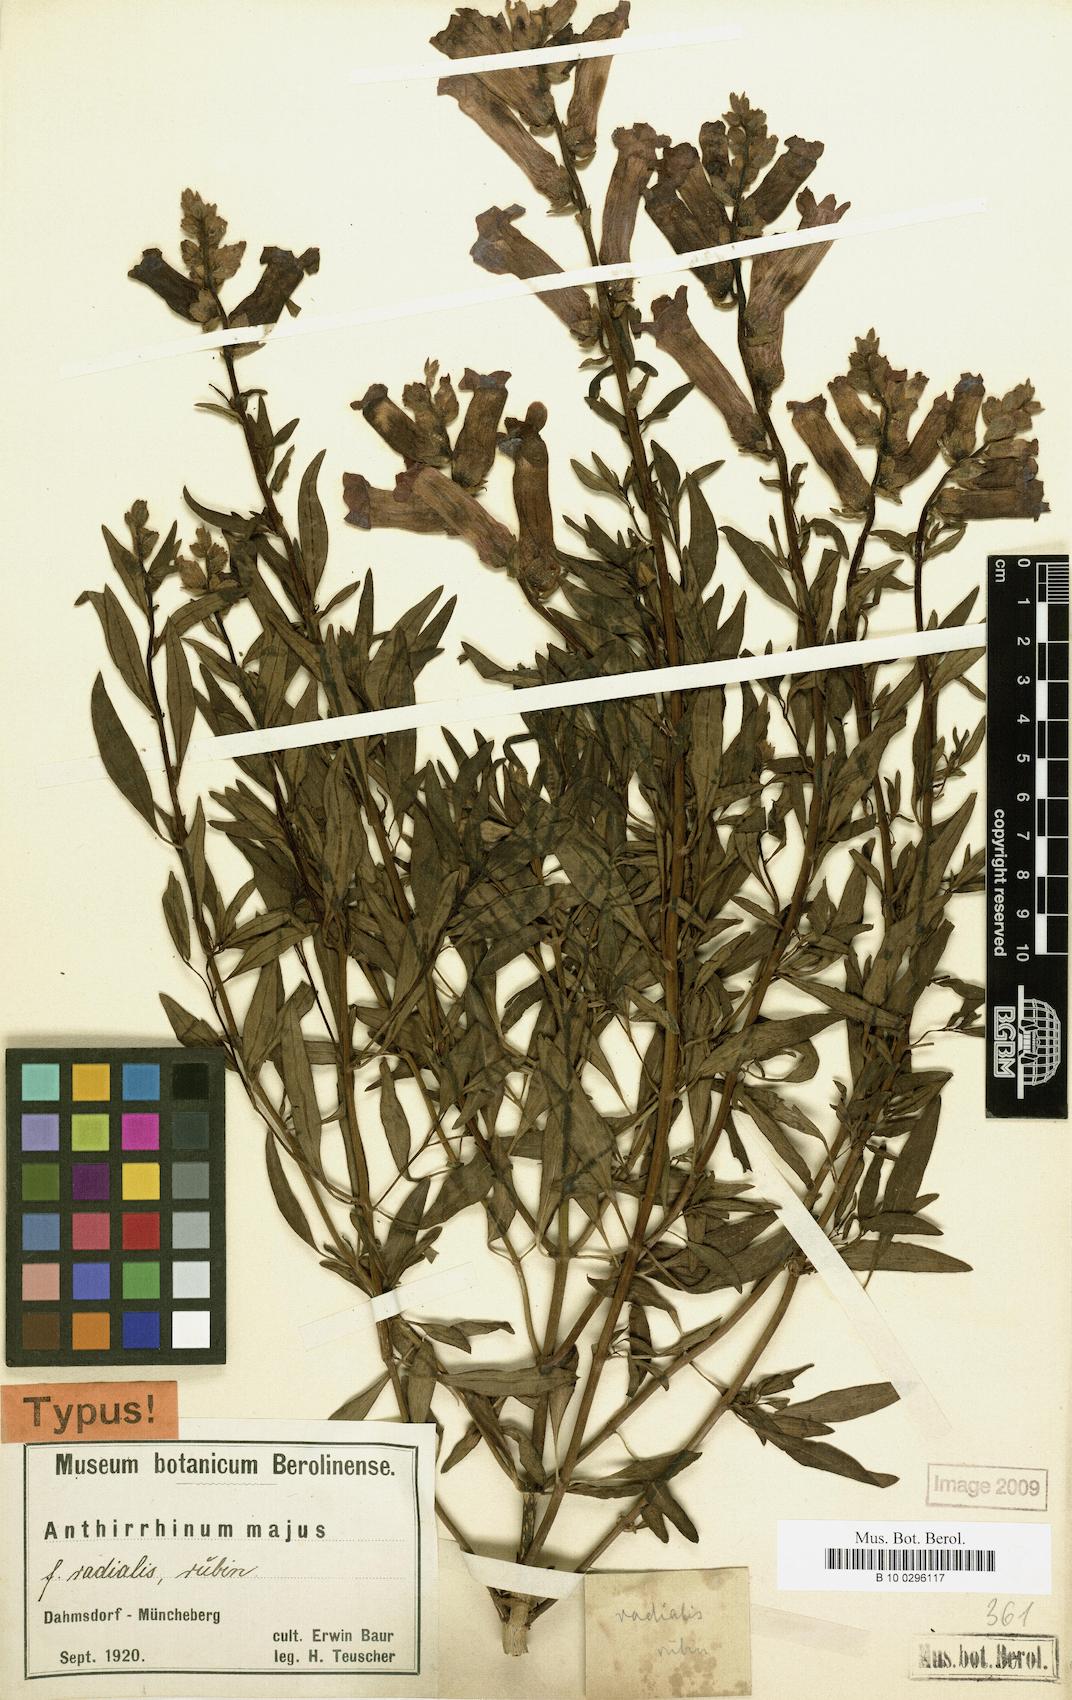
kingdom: Plantae
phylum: Tracheophyta
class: Magnoliopsida
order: Lamiales
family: Plantaginaceae
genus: Antirrhinum
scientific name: Antirrhinum majus
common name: Snapdragon
